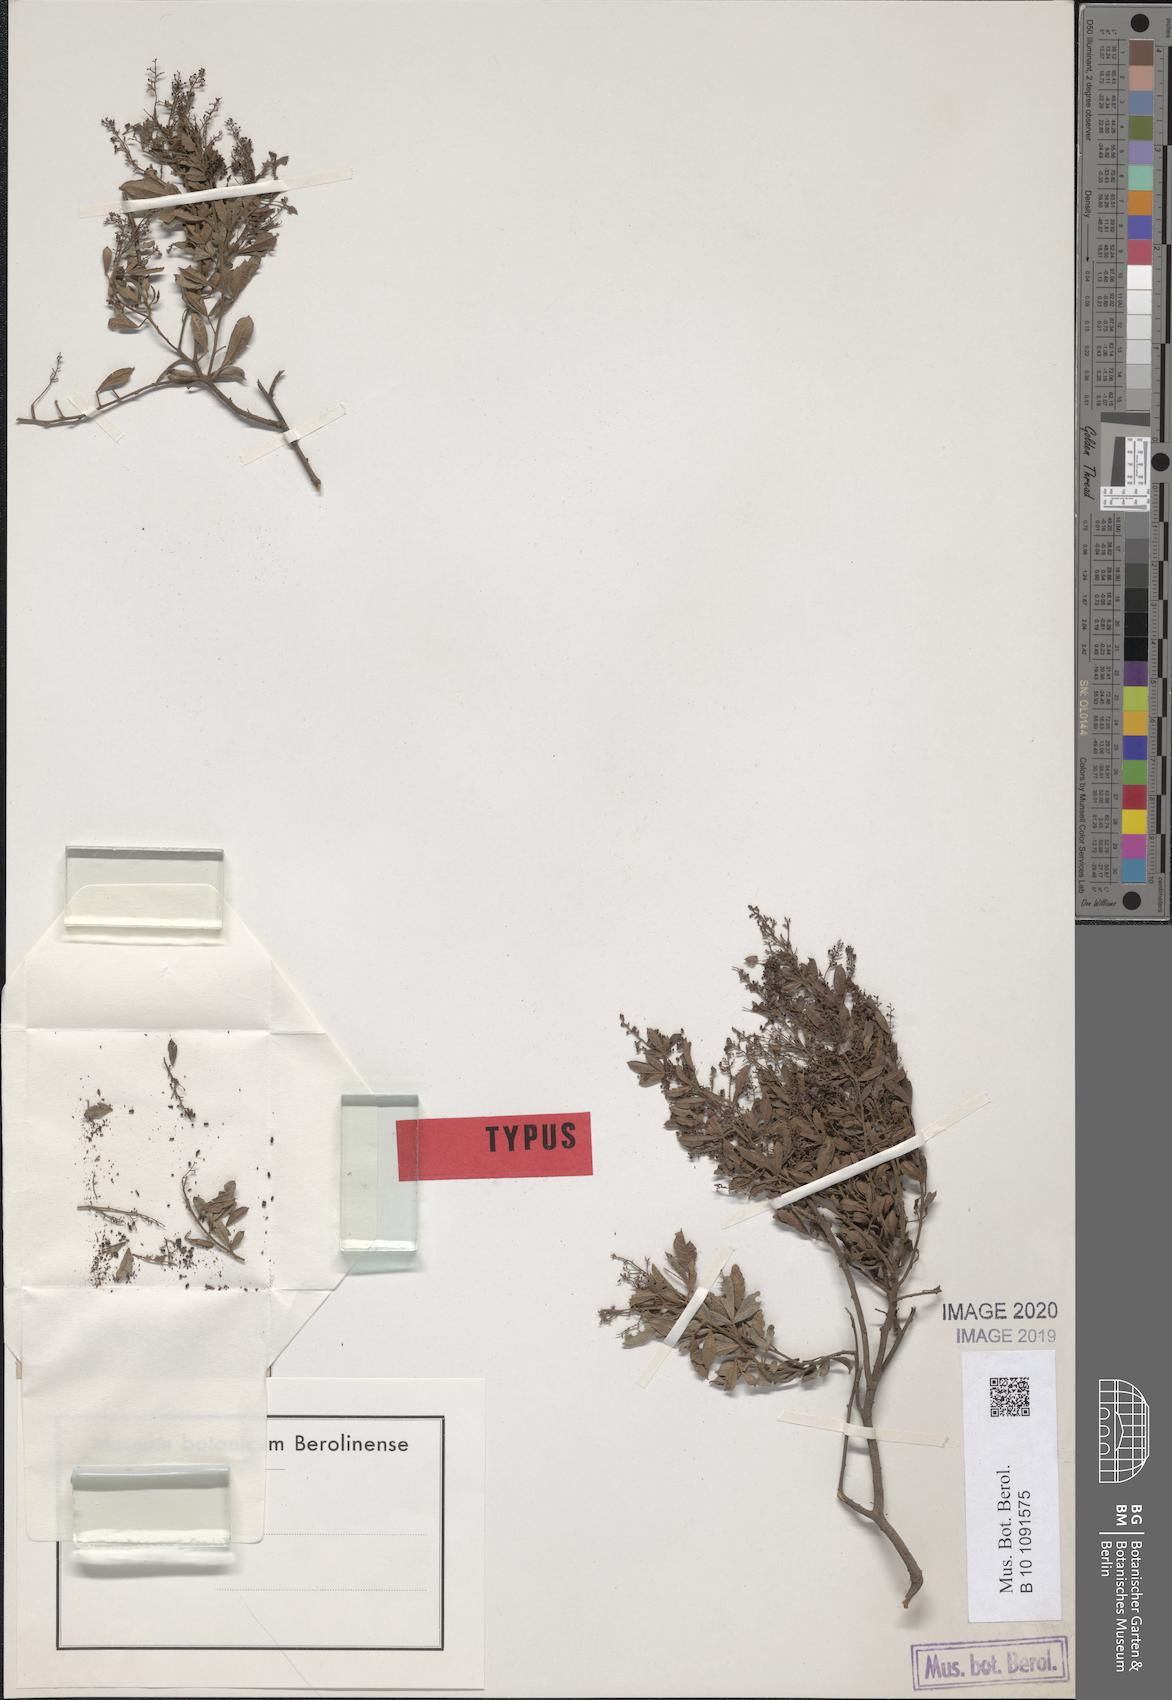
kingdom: Plantae
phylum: Tracheophyta
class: Magnoliopsida
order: Sapindales
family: Anacardiaceae
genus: Searsia
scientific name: Searsia fastigiata
